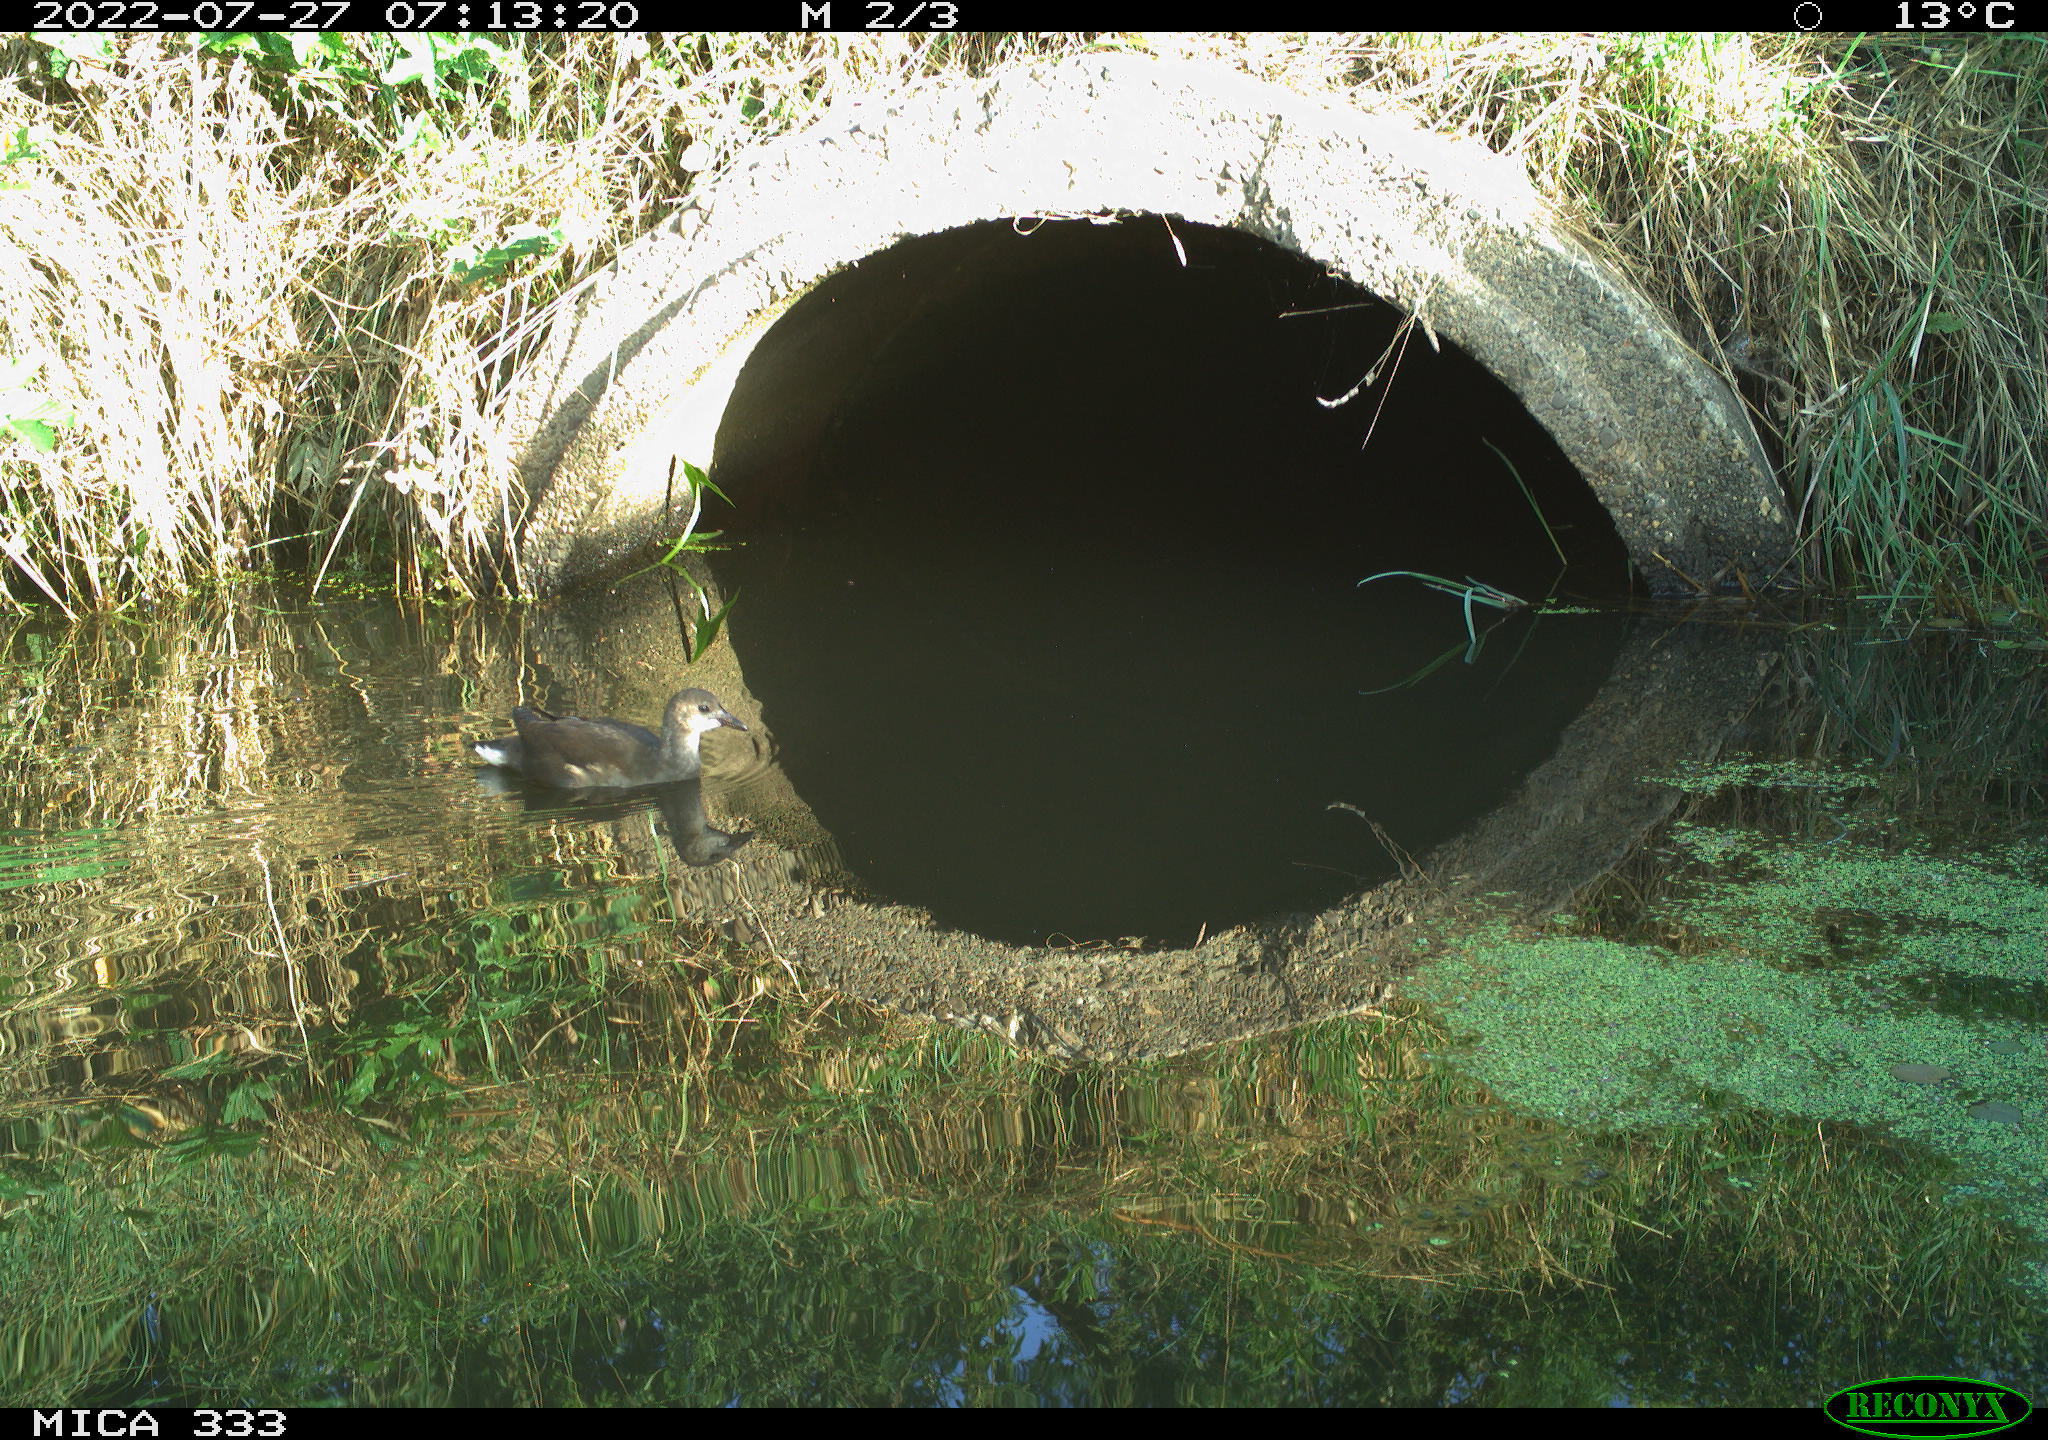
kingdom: Animalia
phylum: Chordata
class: Aves
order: Gruiformes
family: Rallidae
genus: Gallinula
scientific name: Gallinula chloropus
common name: Common moorhen
